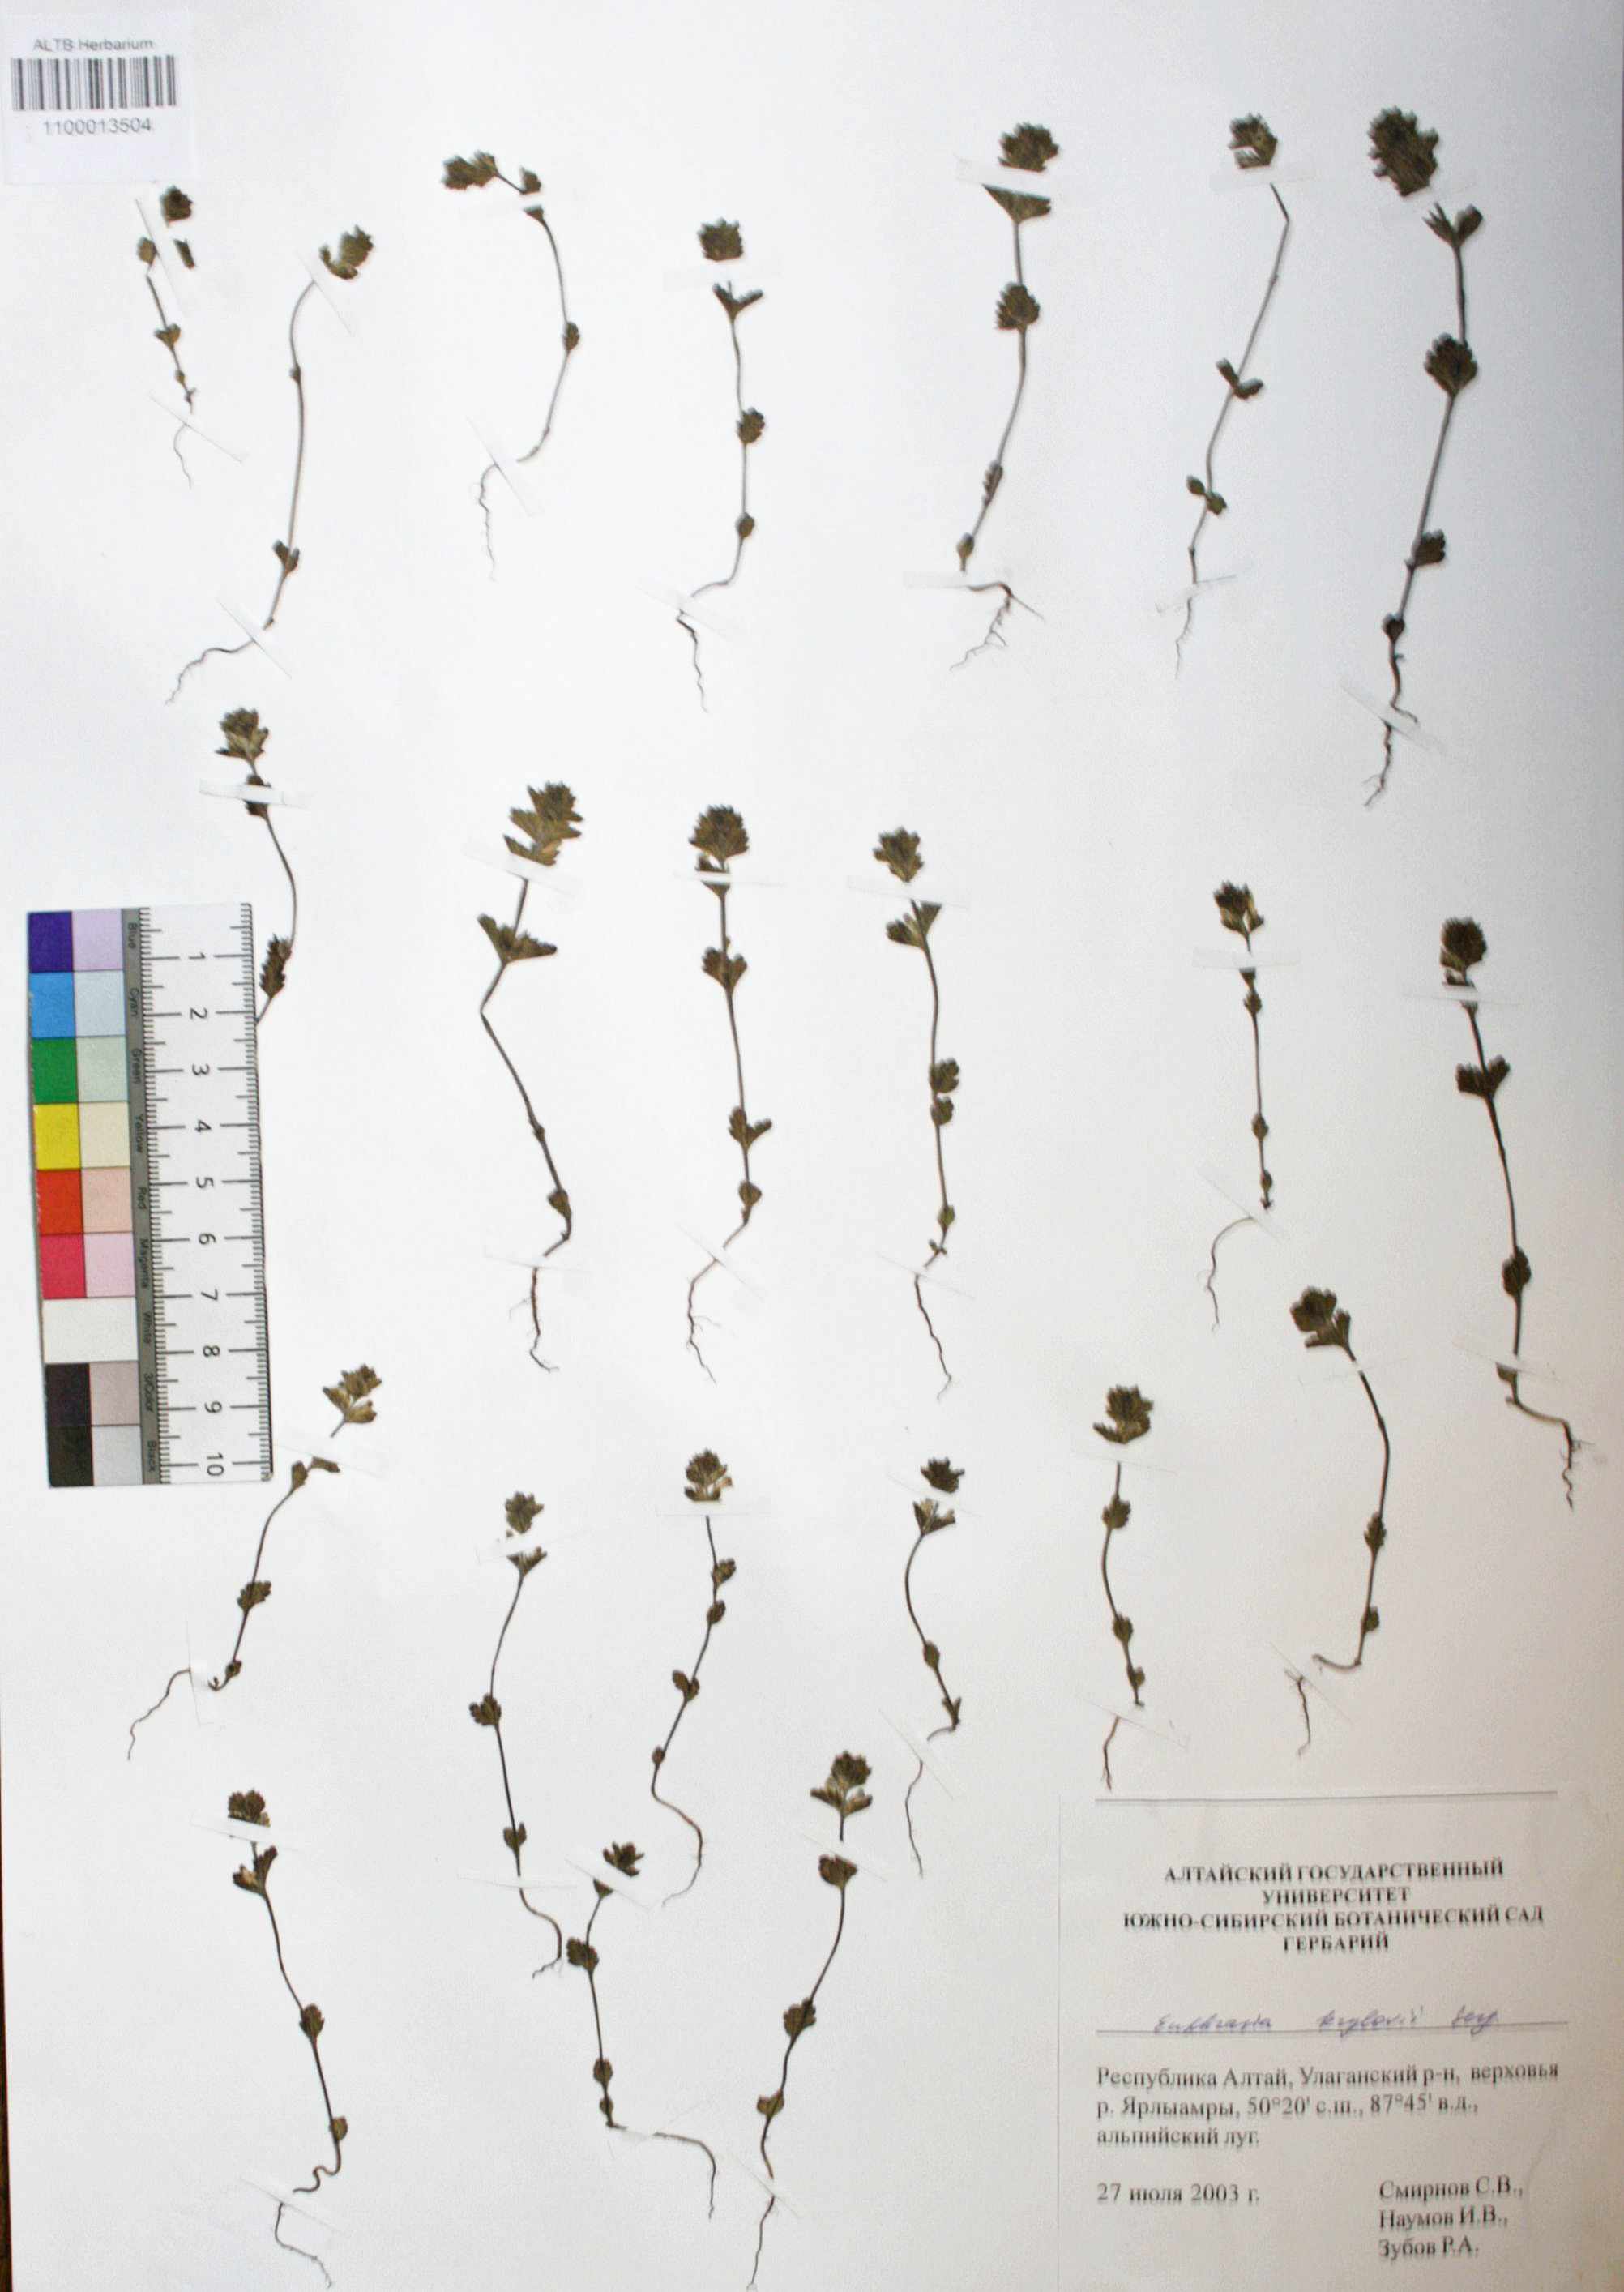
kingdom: Plantae
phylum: Tracheophyta
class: Magnoliopsida
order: Lamiales
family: Orobanchaceae
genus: Euphrasia
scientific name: Euphrasia krylovii
